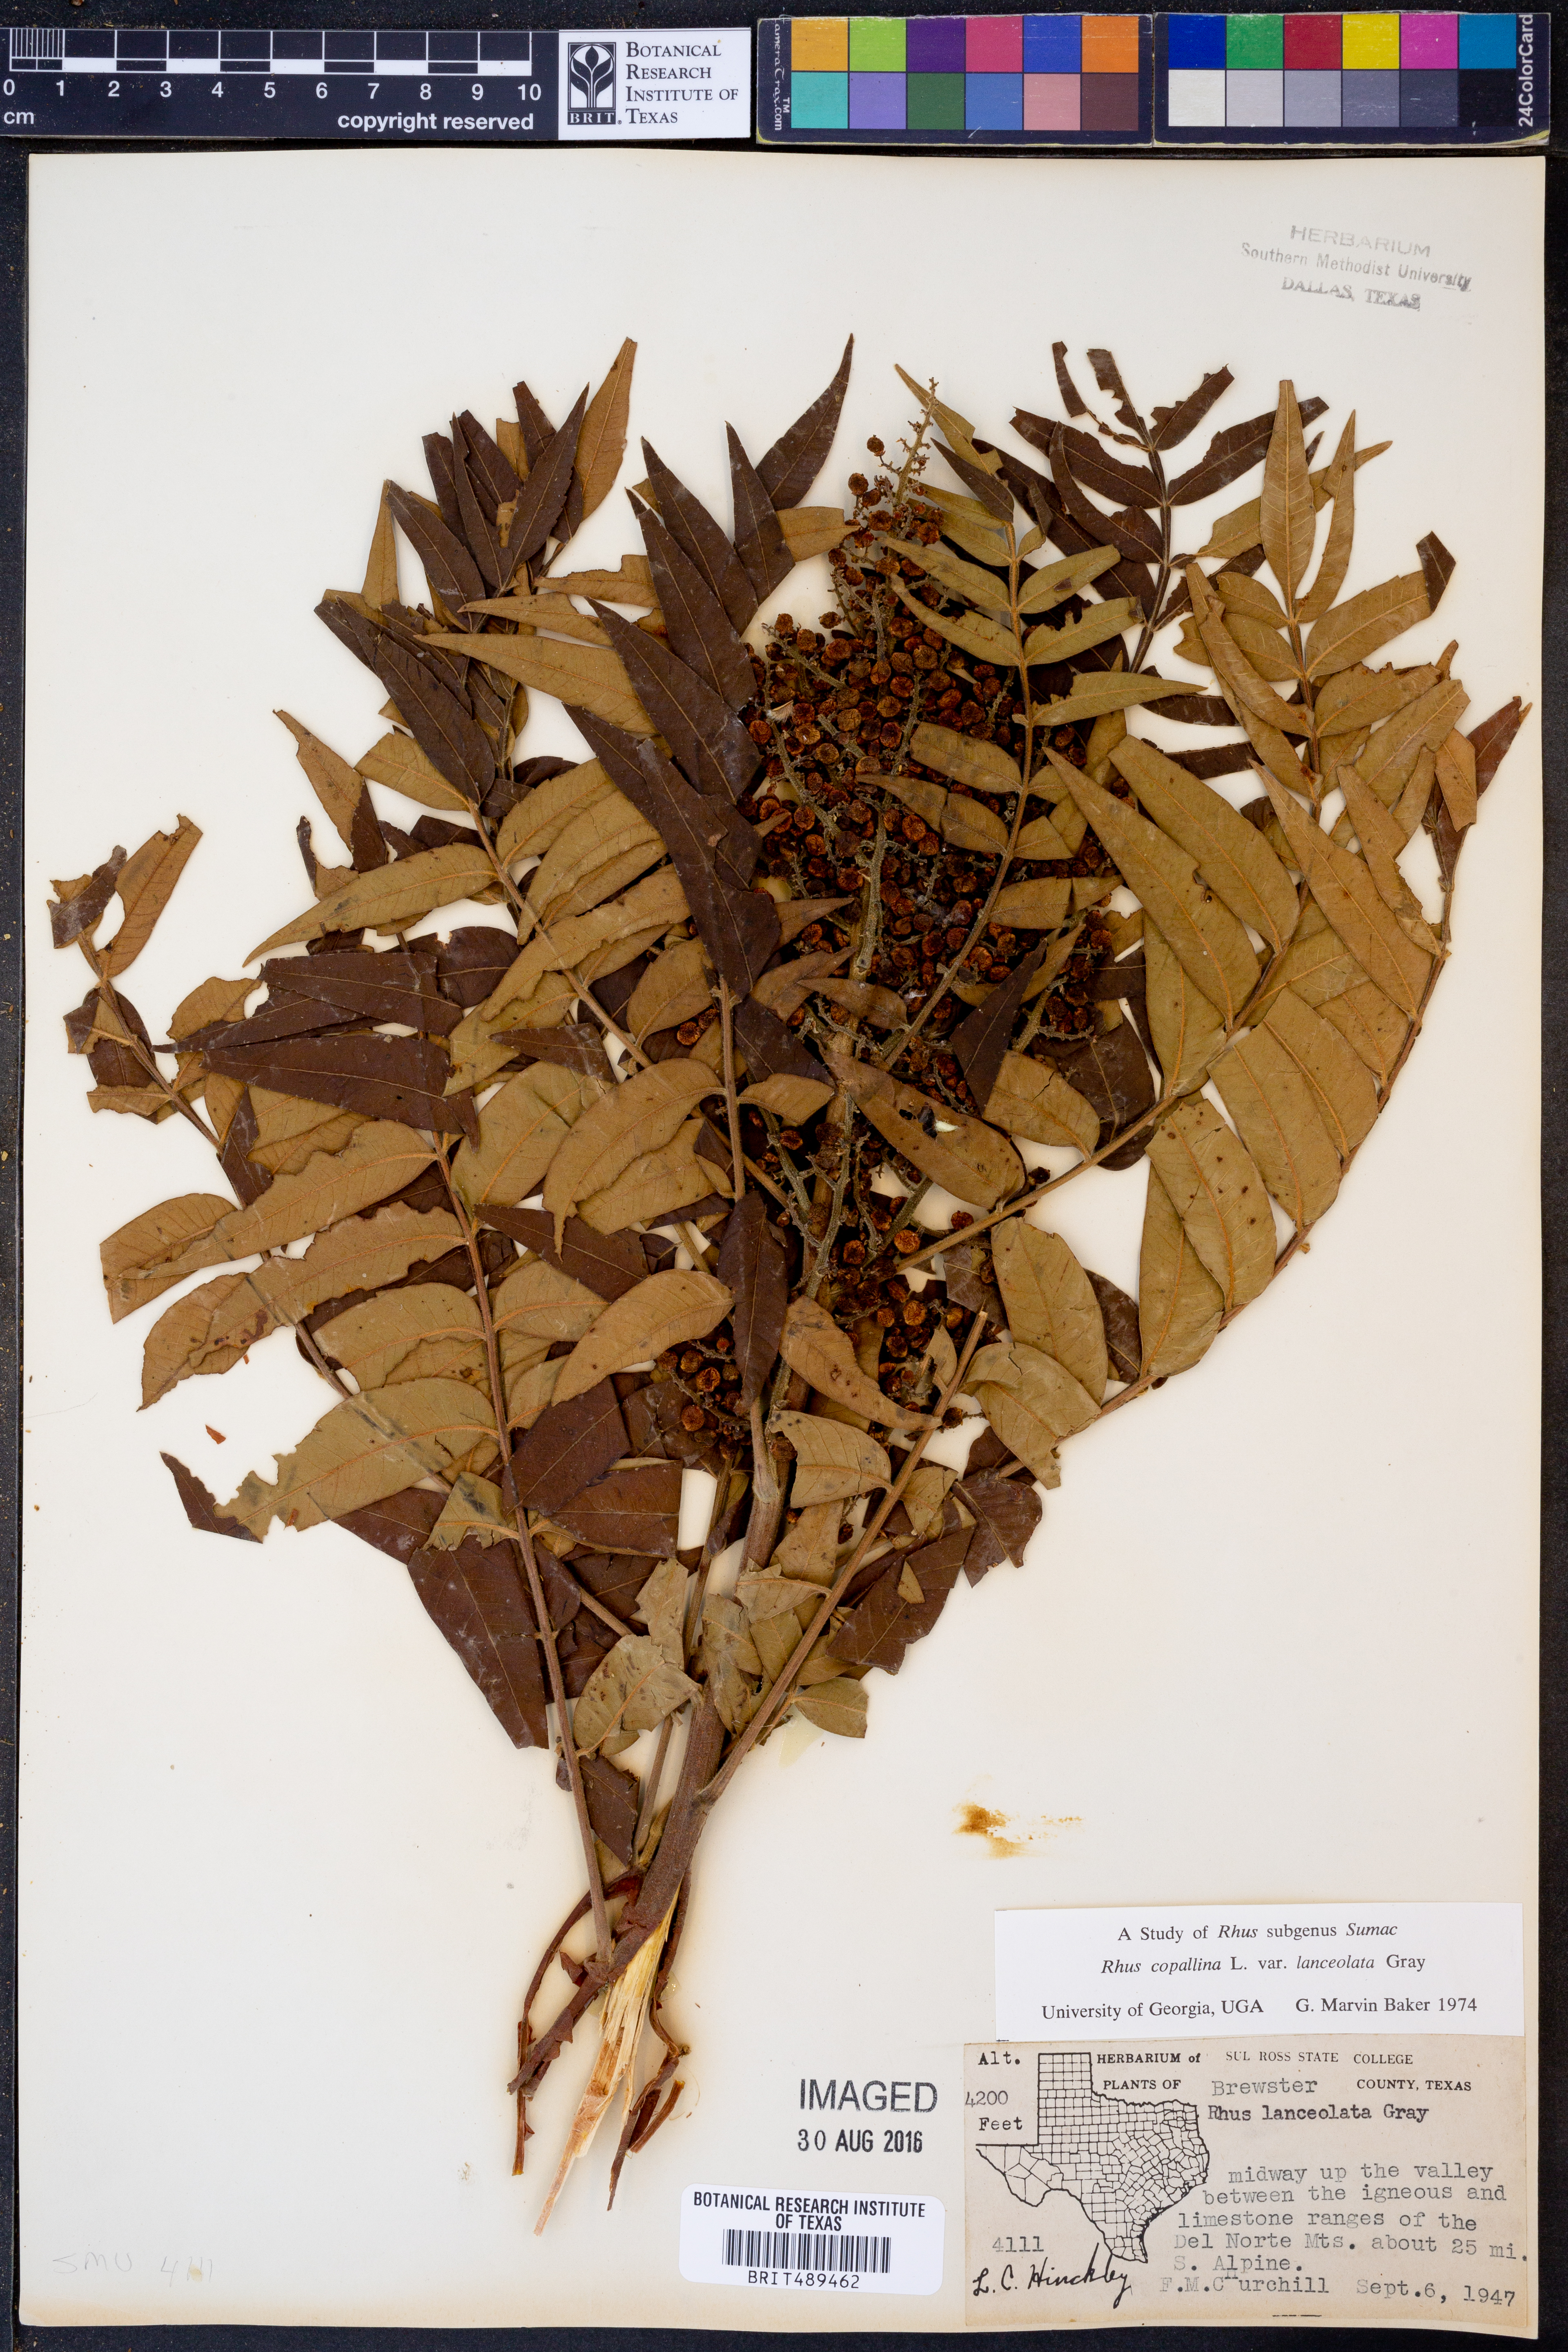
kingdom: Plantae
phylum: Tracheophyta
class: Magnoliopsida
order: Sapindales
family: Anacardiaceae
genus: Rhus
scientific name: Rhus lanceolata
